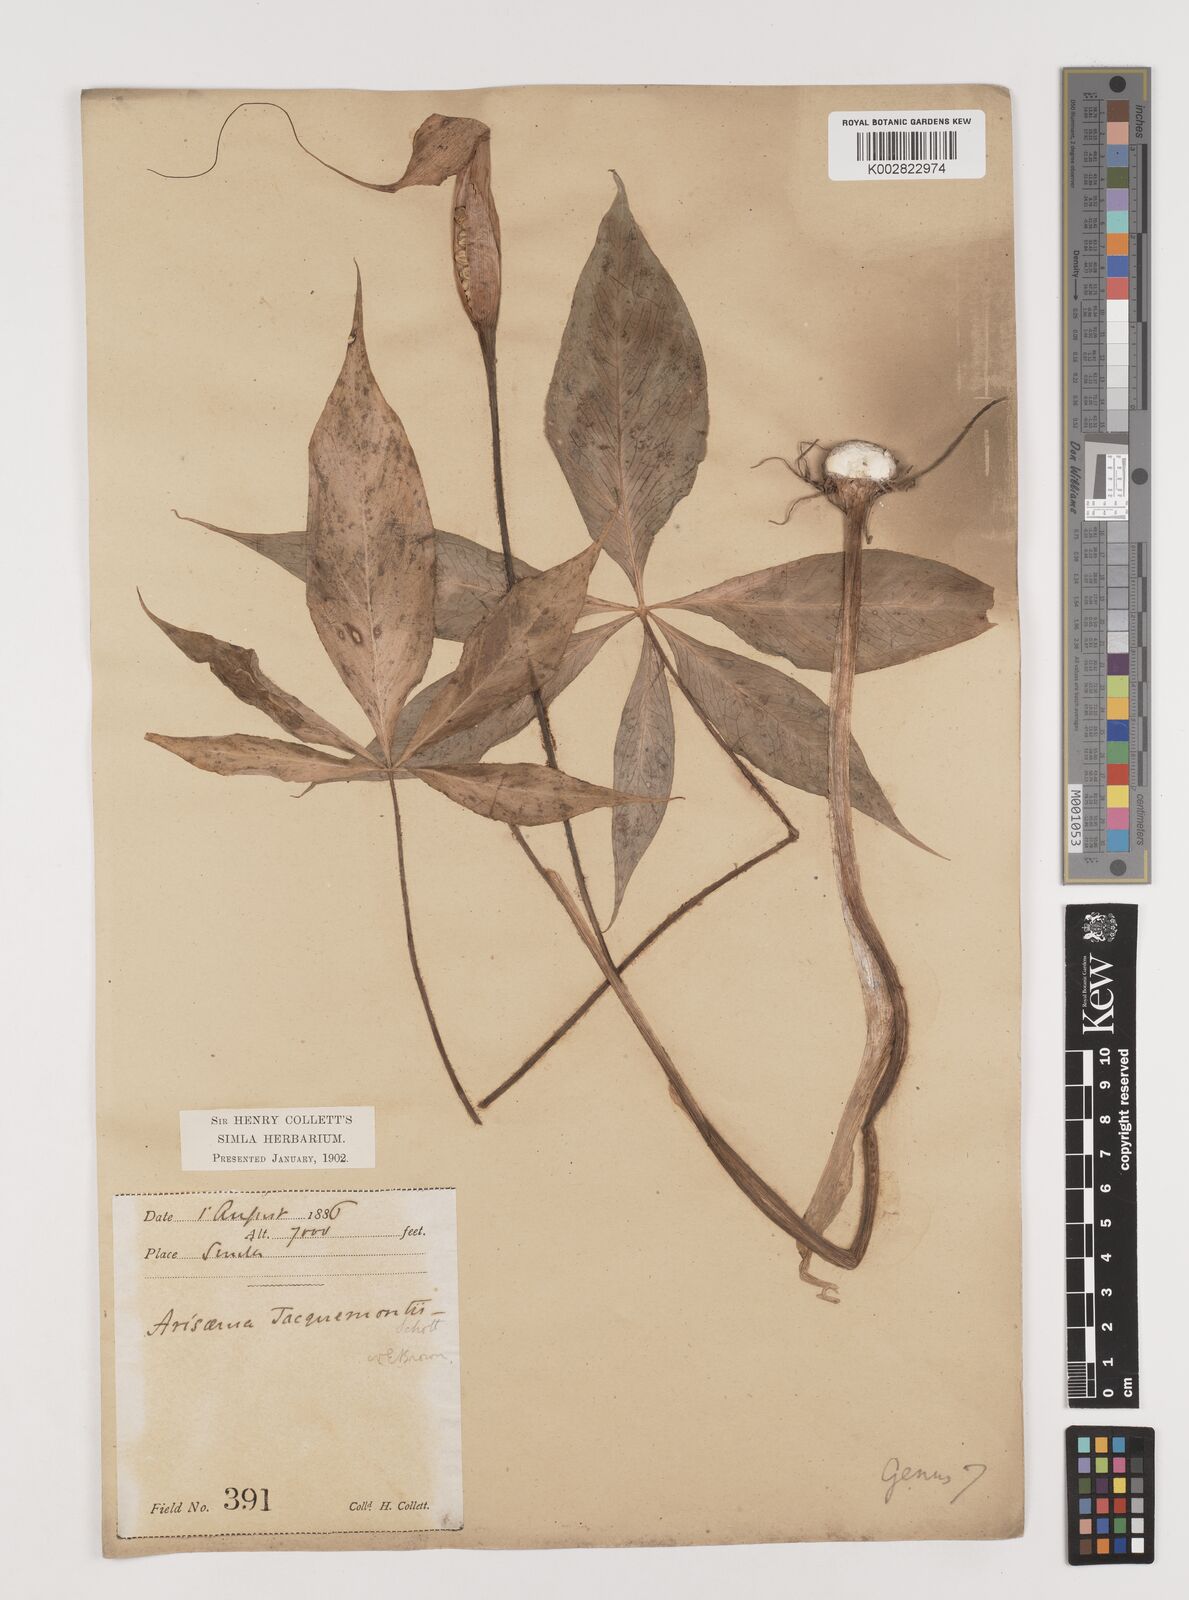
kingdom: Plantae
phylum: Tracheophyta
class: Liliopsida
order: Alismatales
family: Araceae
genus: Arisaema
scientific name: Arisaema jacquemontii
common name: Jacquemont's cobra-lily
